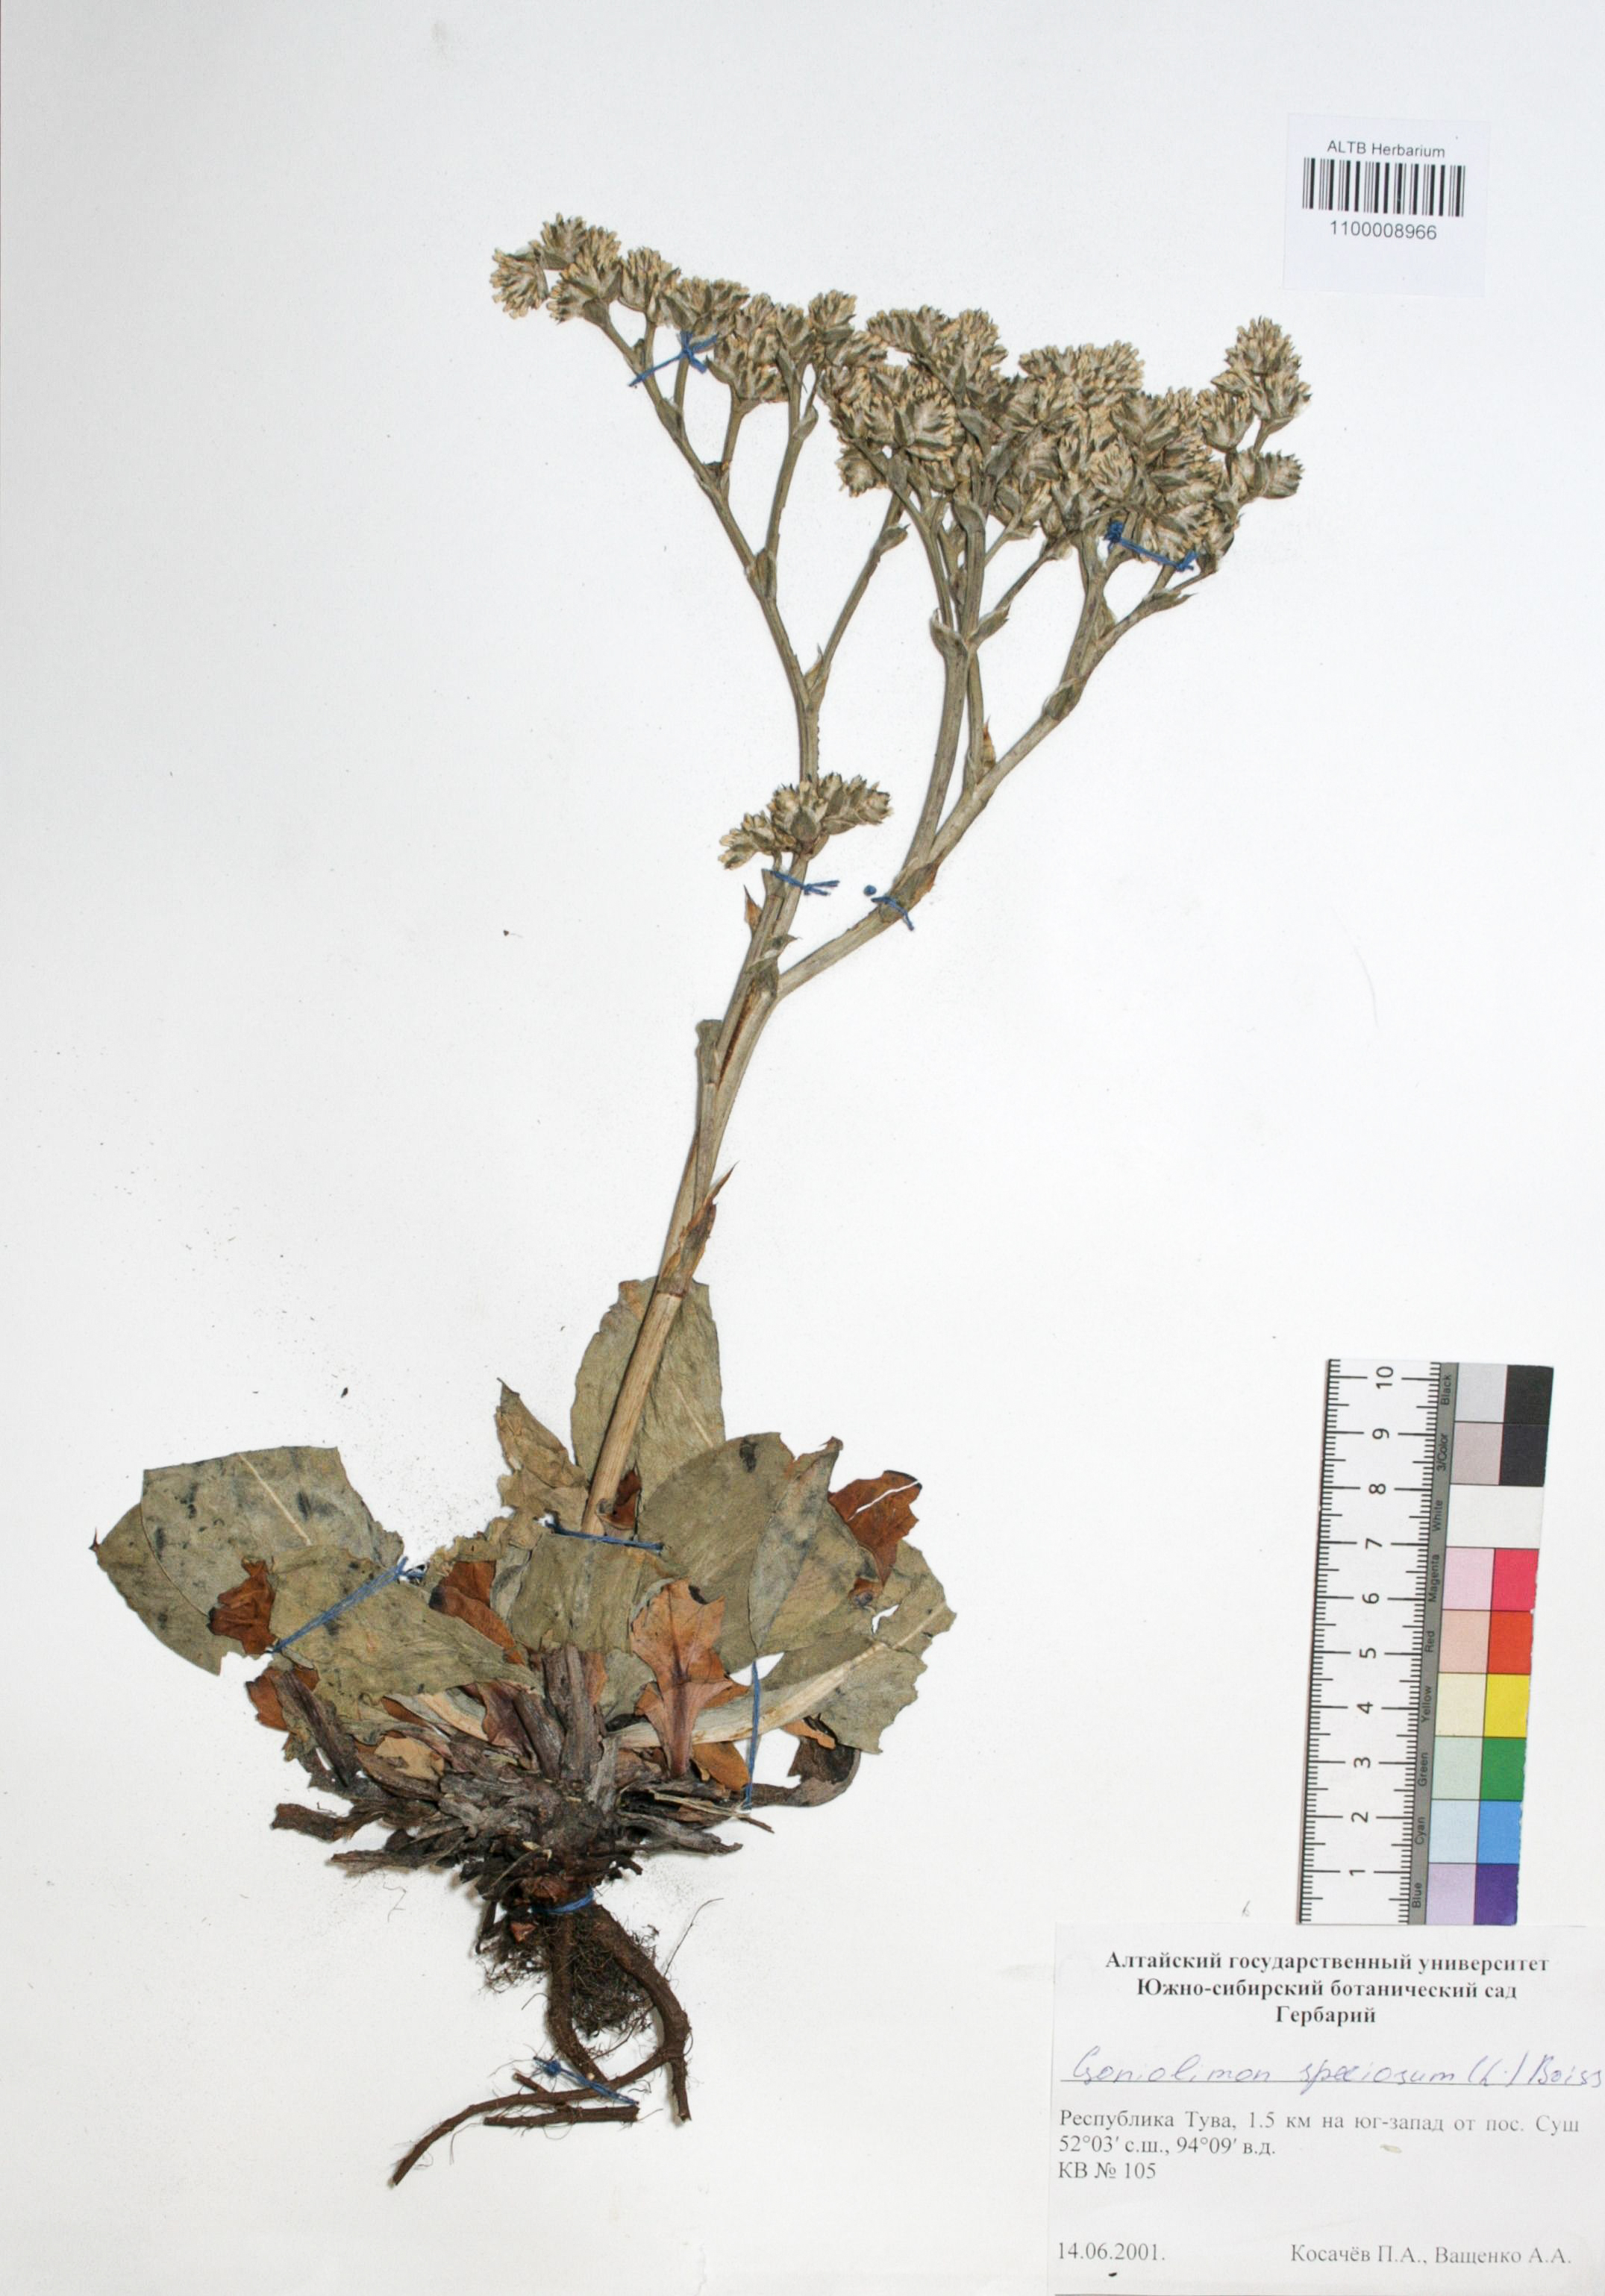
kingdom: Plantae
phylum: Tracheophyta
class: Magnoliopsida
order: Caryophyllales
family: Plumbaginaceae
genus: Goniolimon
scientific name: Goniolimon speciosum
